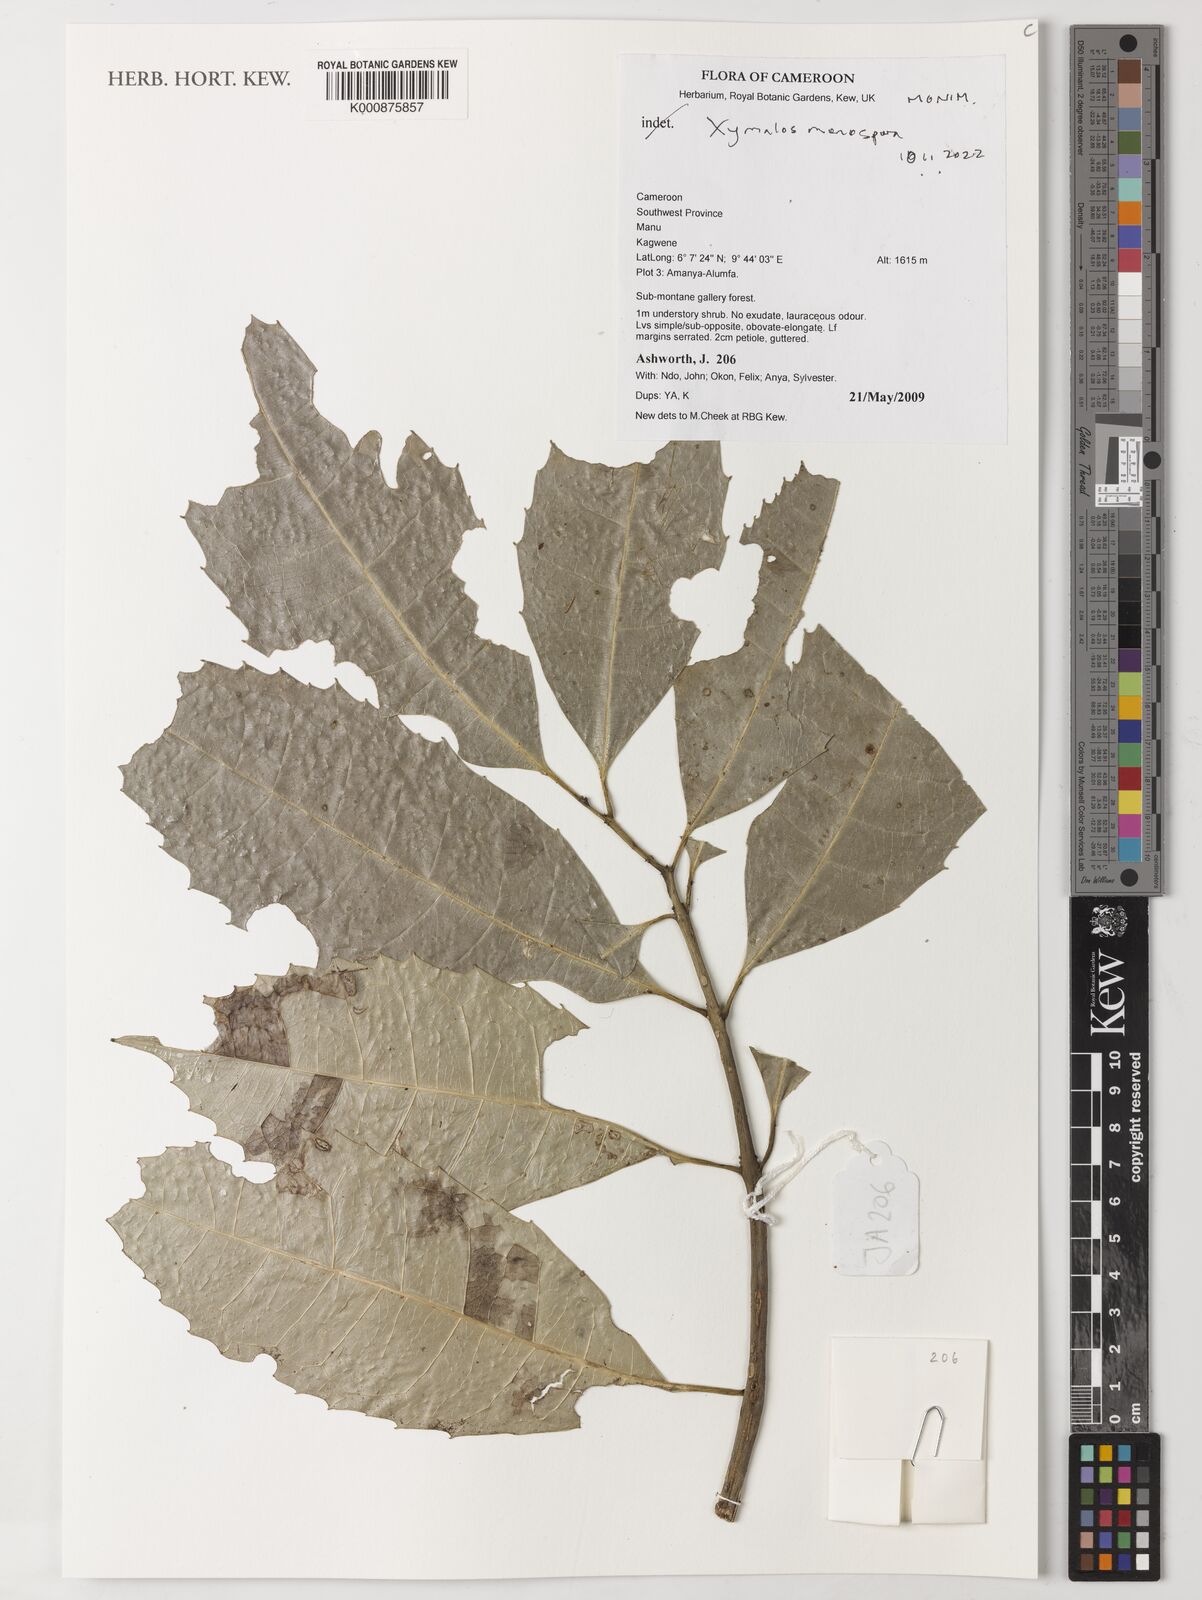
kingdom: Plantae
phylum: Tracheophyta
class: Magnoliopsida
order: Laurales
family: Monimiaceae
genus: Xymalos
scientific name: Xymalos monospora
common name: Lemonwood
